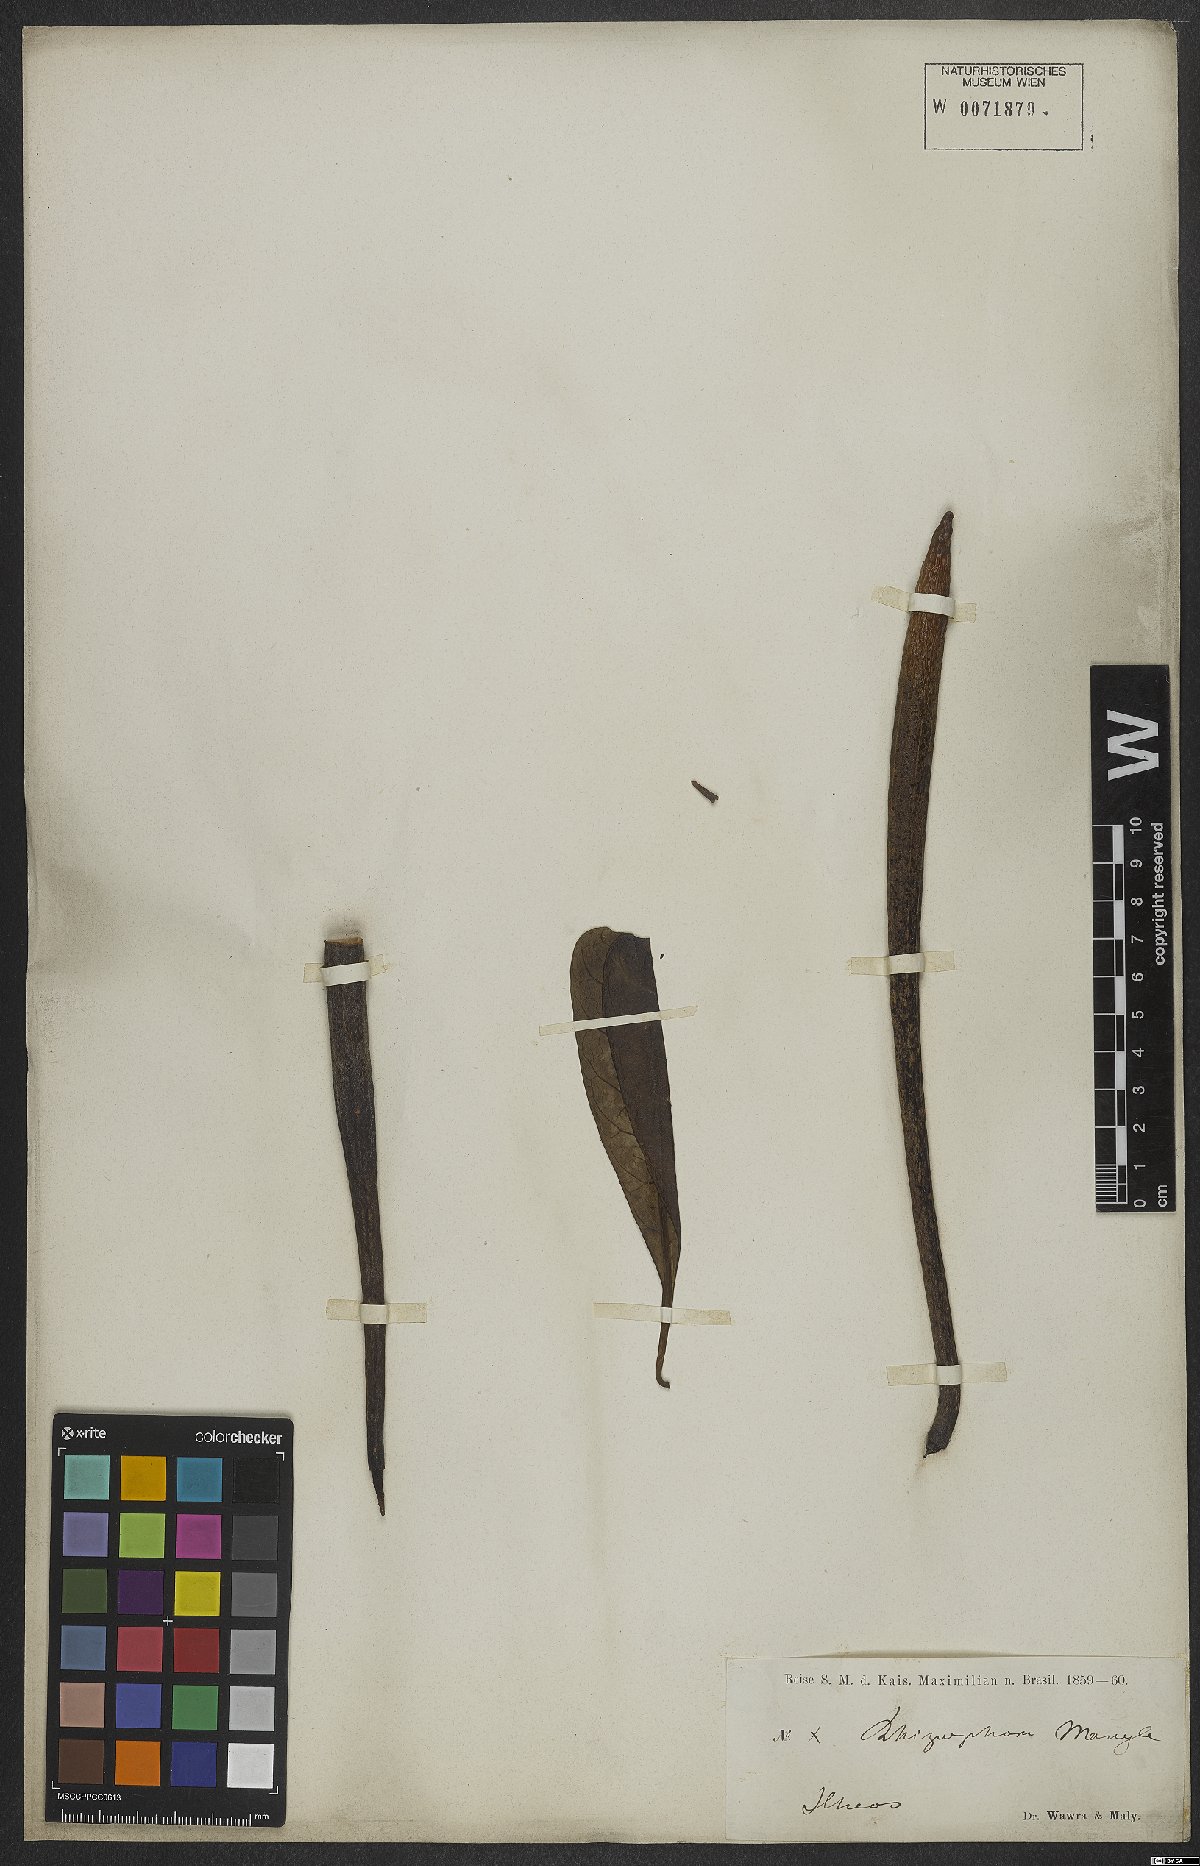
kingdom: Plantae
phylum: Tracheophyta
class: Magnoliopsida
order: Malpighiales
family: Rhizophoraceae
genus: Rhizophora
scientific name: Rhizophora mangle
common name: Red mangrove
